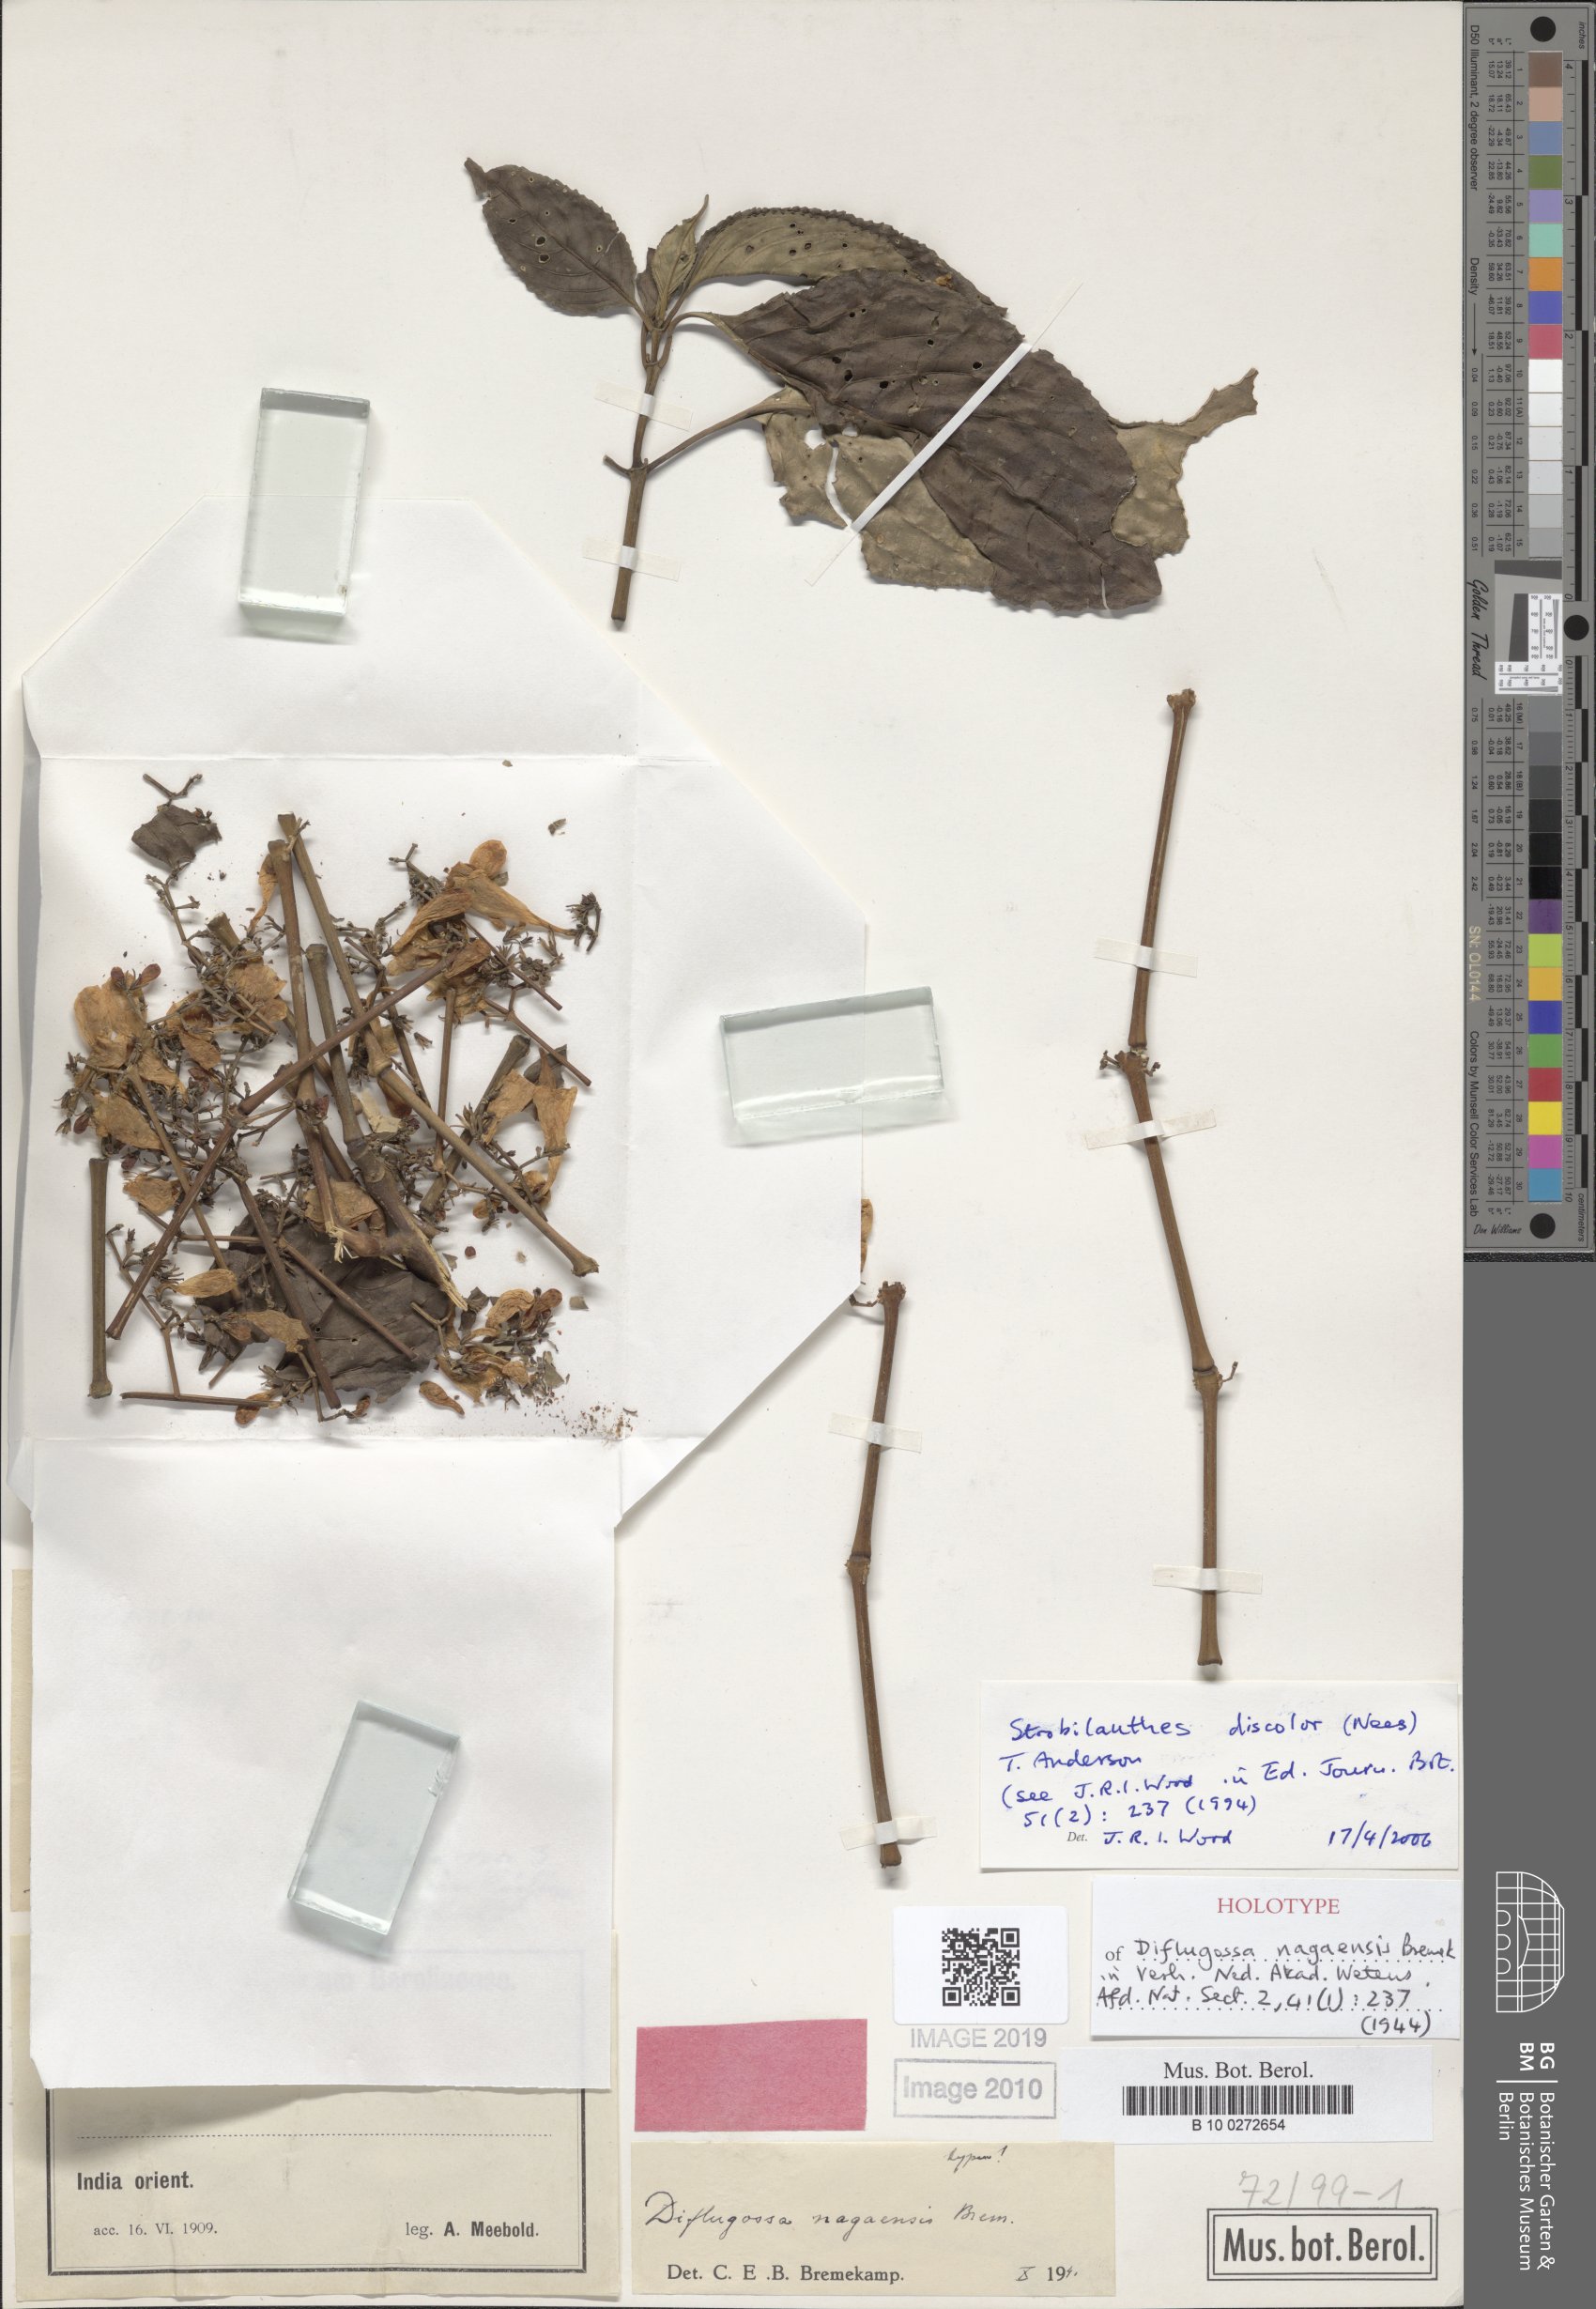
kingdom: Plantae
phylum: Tracheophyta
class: Magnoliopsida
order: Lamiales
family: Acanthaceae
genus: Strobilanthes
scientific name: Strobilanthes discolor
